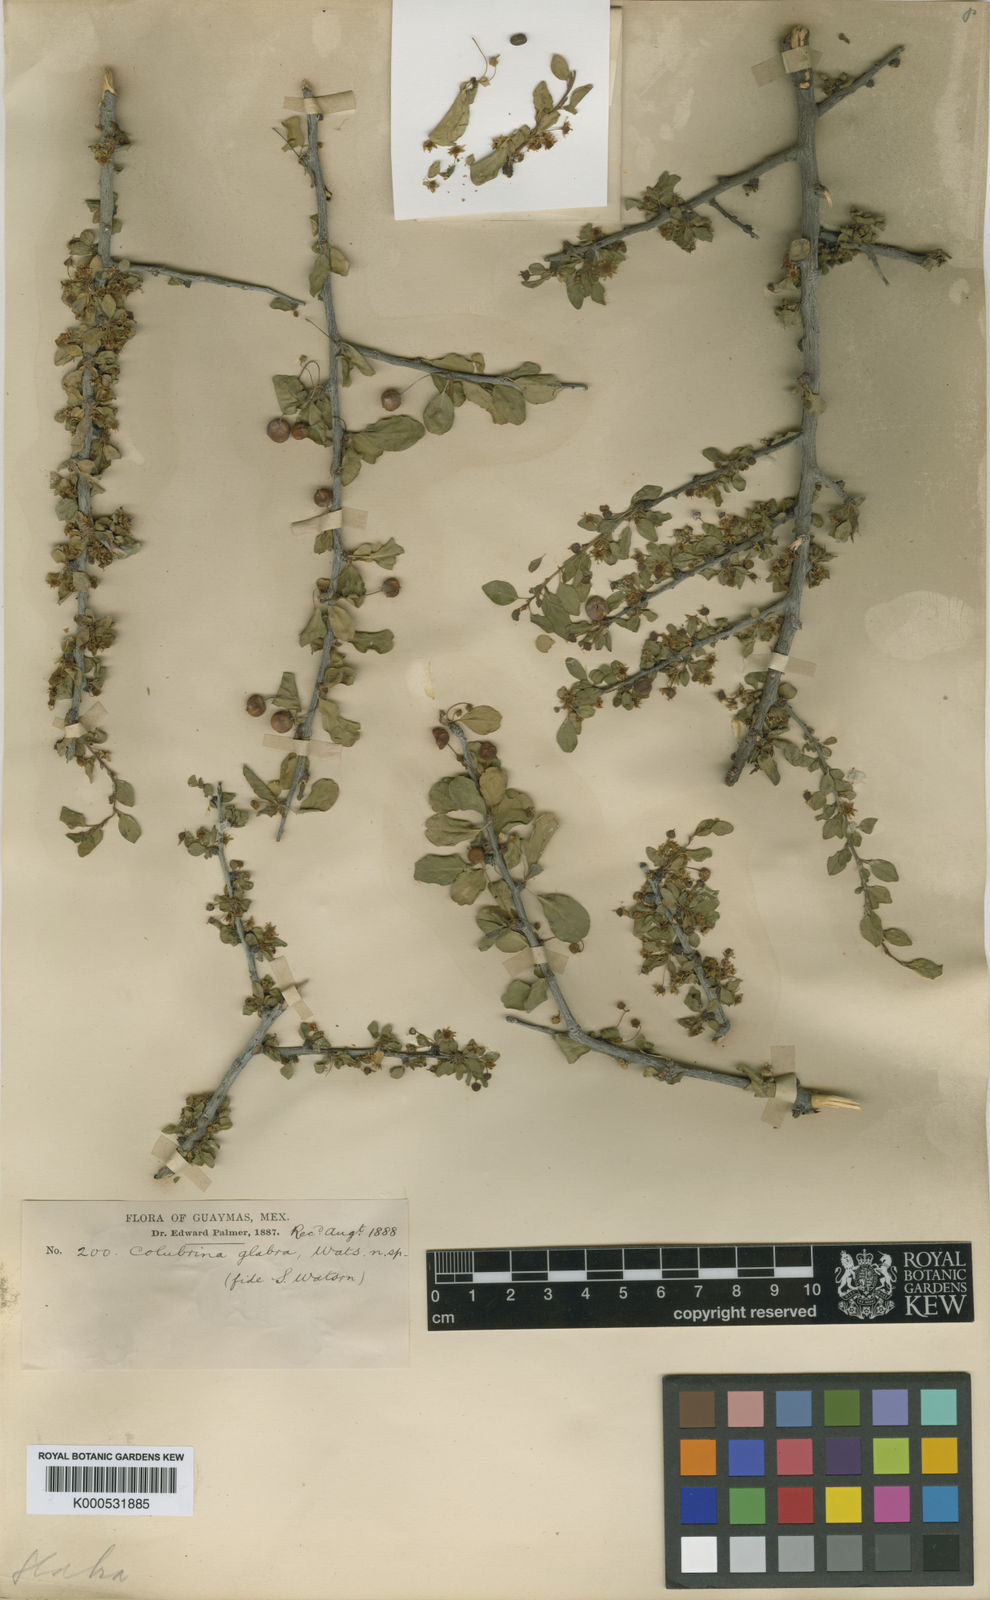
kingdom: Plantae
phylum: Tracheophyta
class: Magnoliopsida
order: Rosales
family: Rhamnaceae
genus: Colubrina
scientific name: Colubrina viridis
